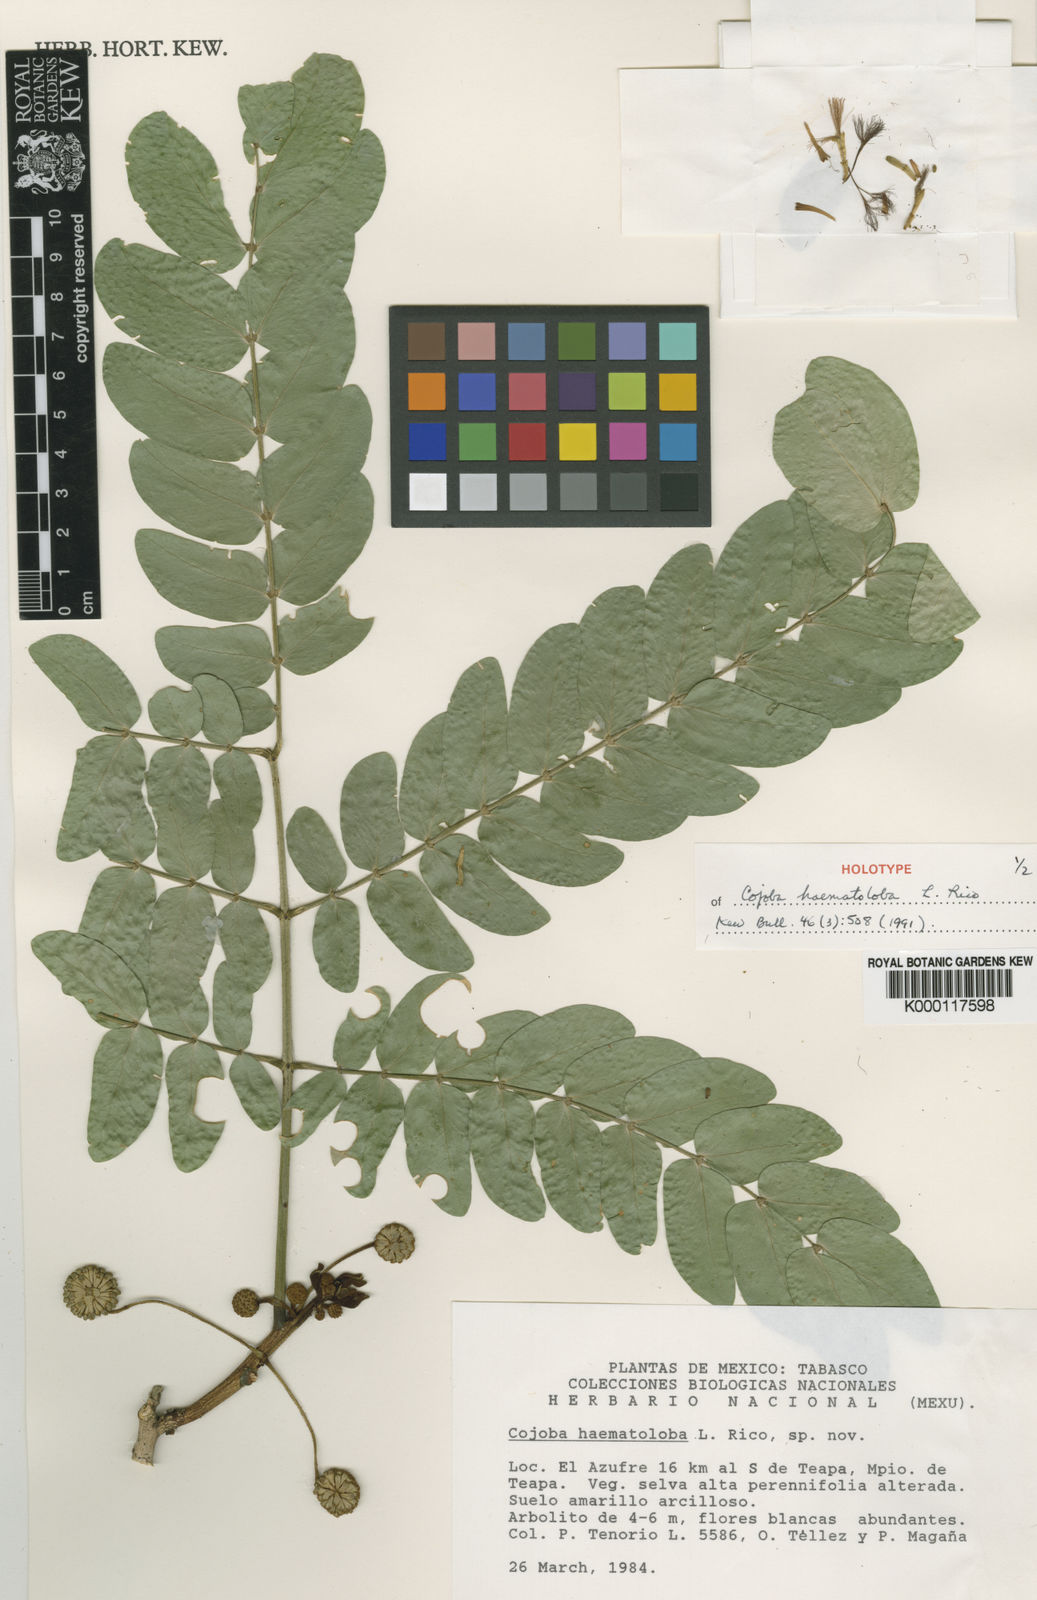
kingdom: Plantae
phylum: Tracheophyta
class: Magnoliopsida
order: Fabales
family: Fabaceae
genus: Cojoba
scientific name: Cojoba sophorocarpa
